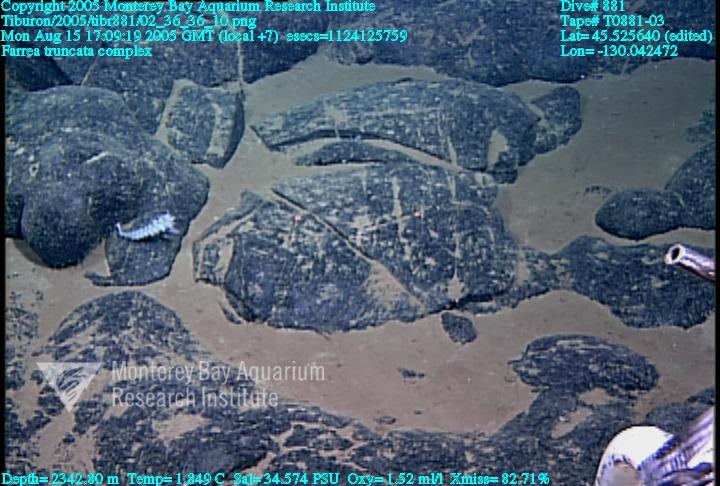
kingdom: Animalia
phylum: Porifera
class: Hexactinellida
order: Sceptrulophora
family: Farreidae
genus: Farrea
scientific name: Farrea truncata
